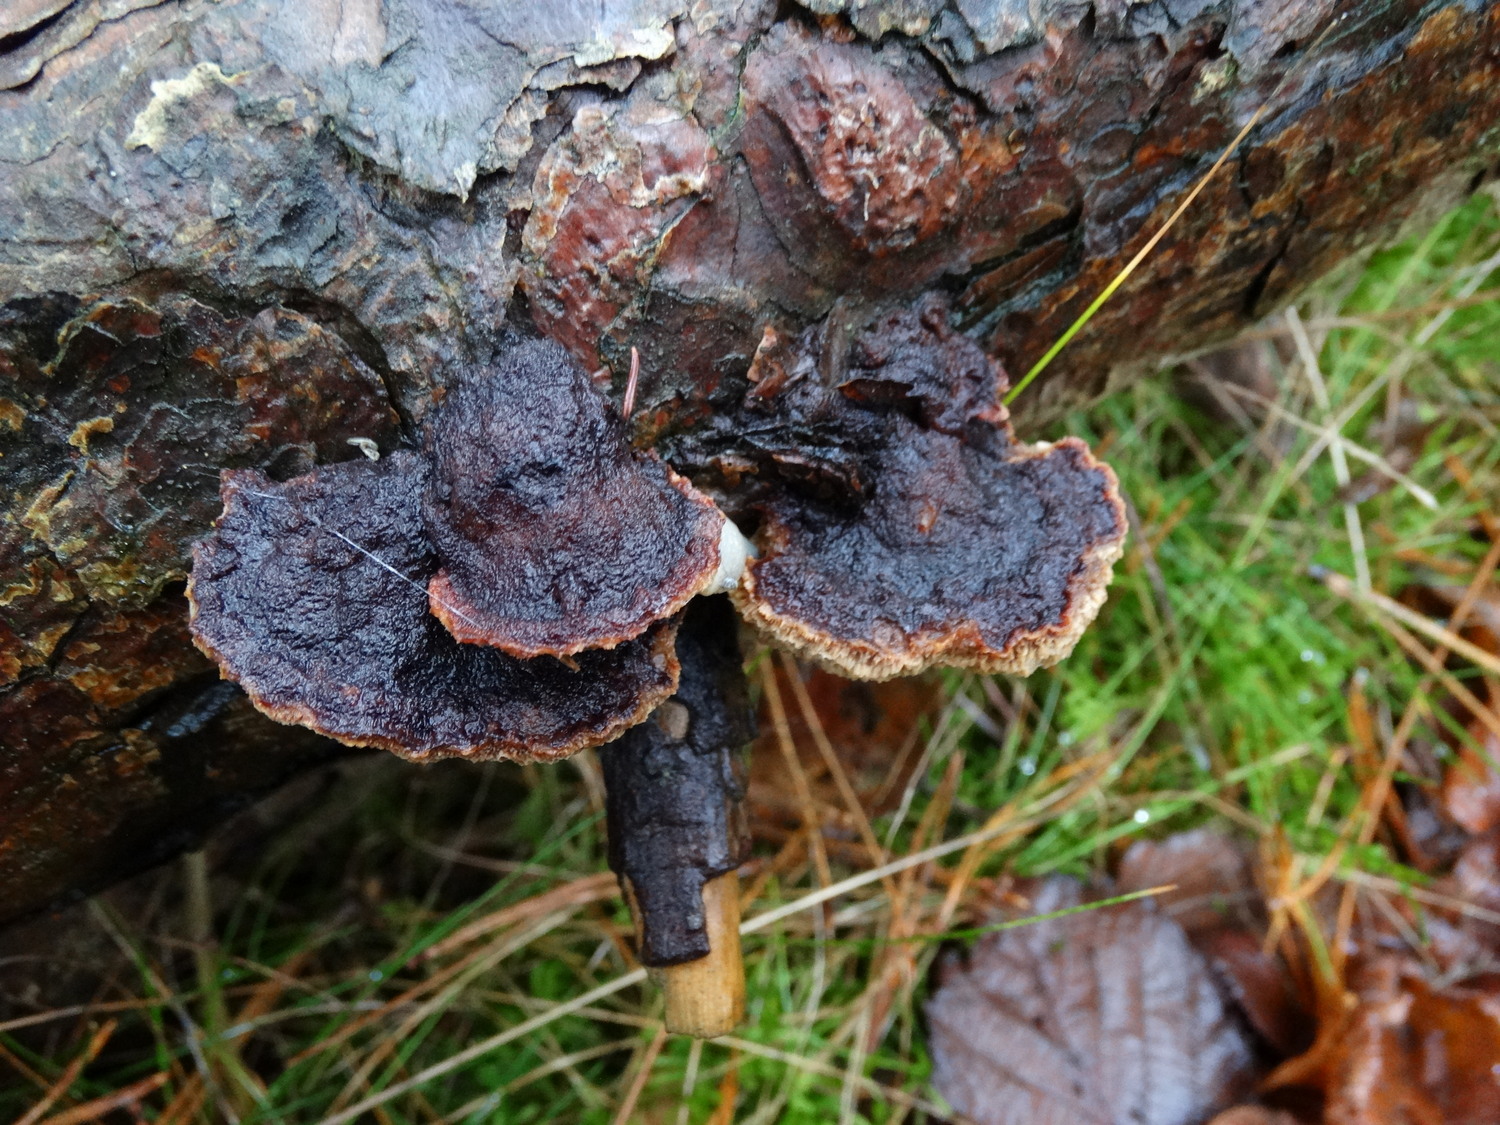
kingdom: Fungi
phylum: Basidiomycota
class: Agaricomycetes
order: Polyporales
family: Ischnodermataceae
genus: Ischnoderma
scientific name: Ischnoderma benzoinum
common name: gran-tjæreporesvamp
